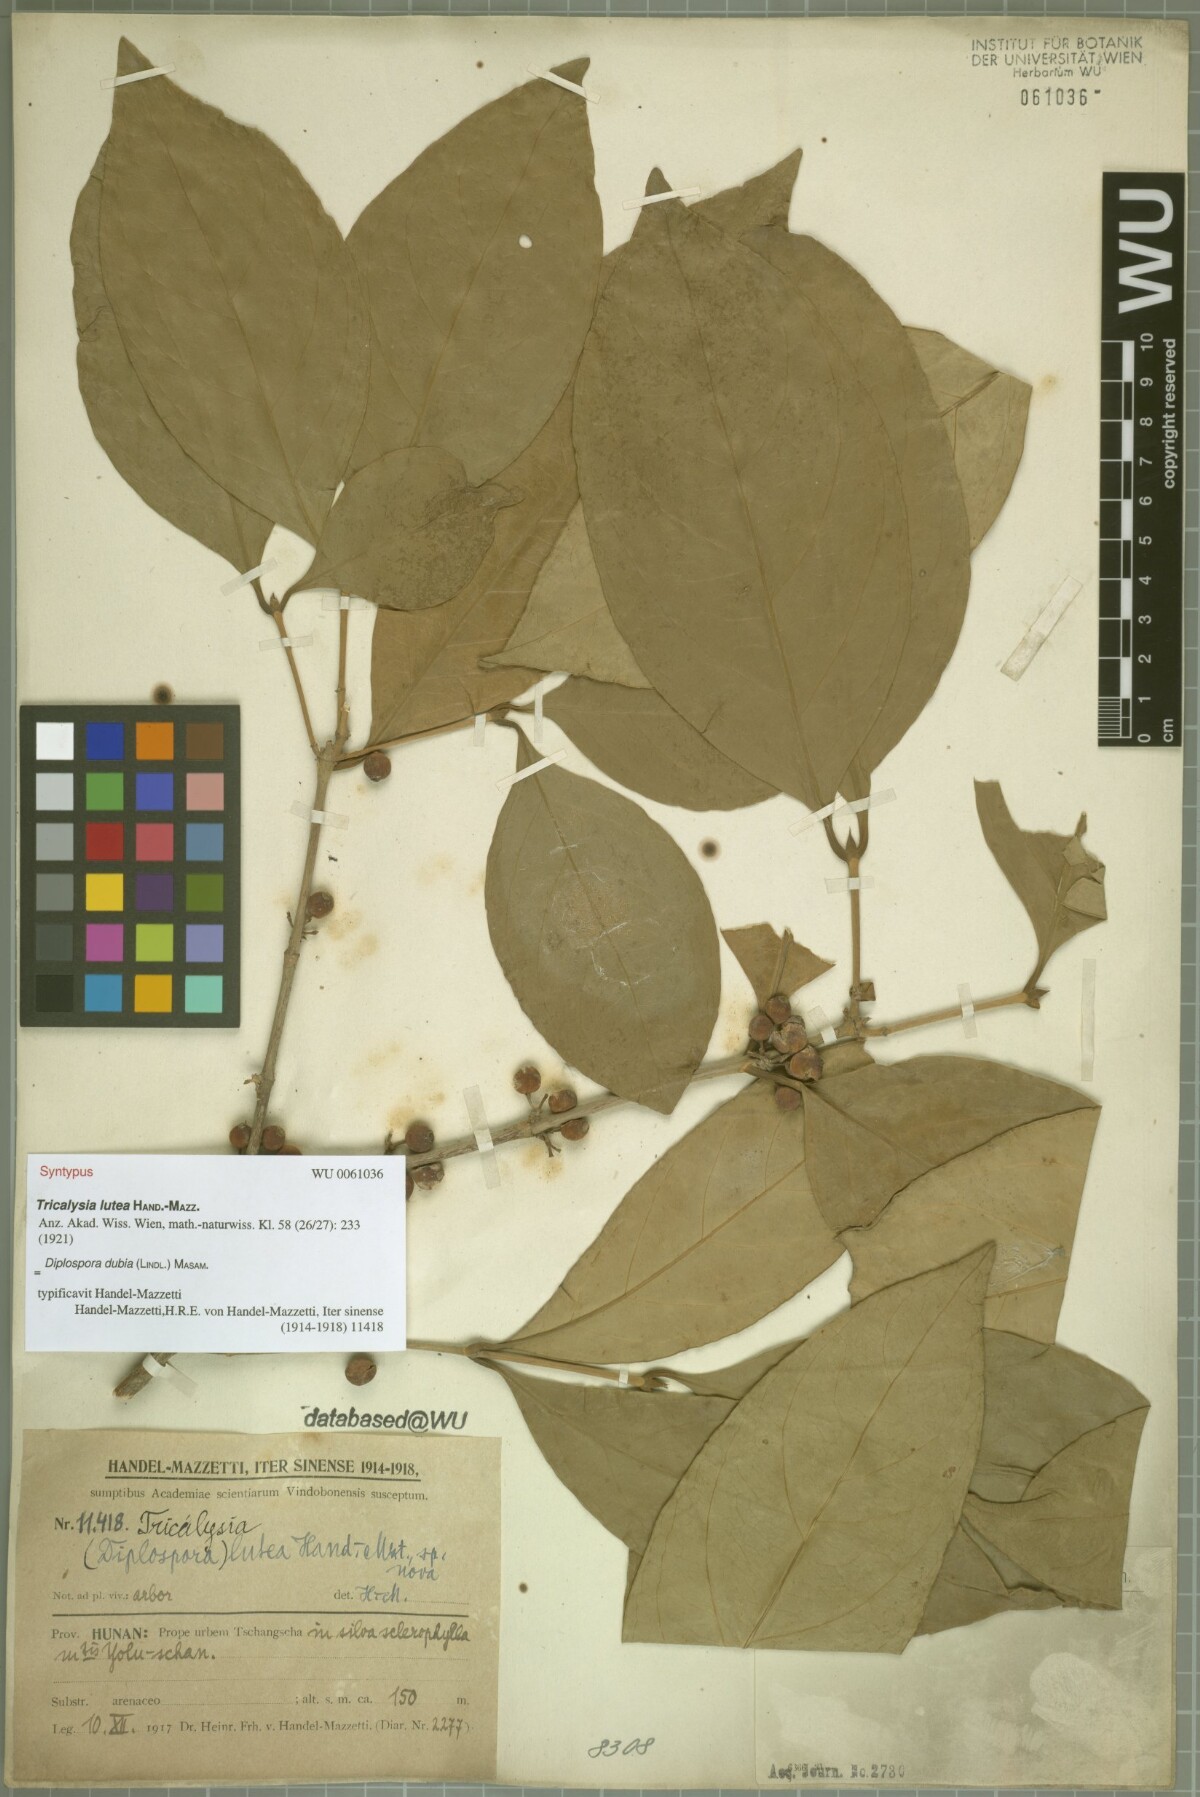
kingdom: Plantae
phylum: Tracheophyta
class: Magnoliopsida
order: Gentianales
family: Rubiaceae
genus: Diplospora
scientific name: Diplospora dubia
